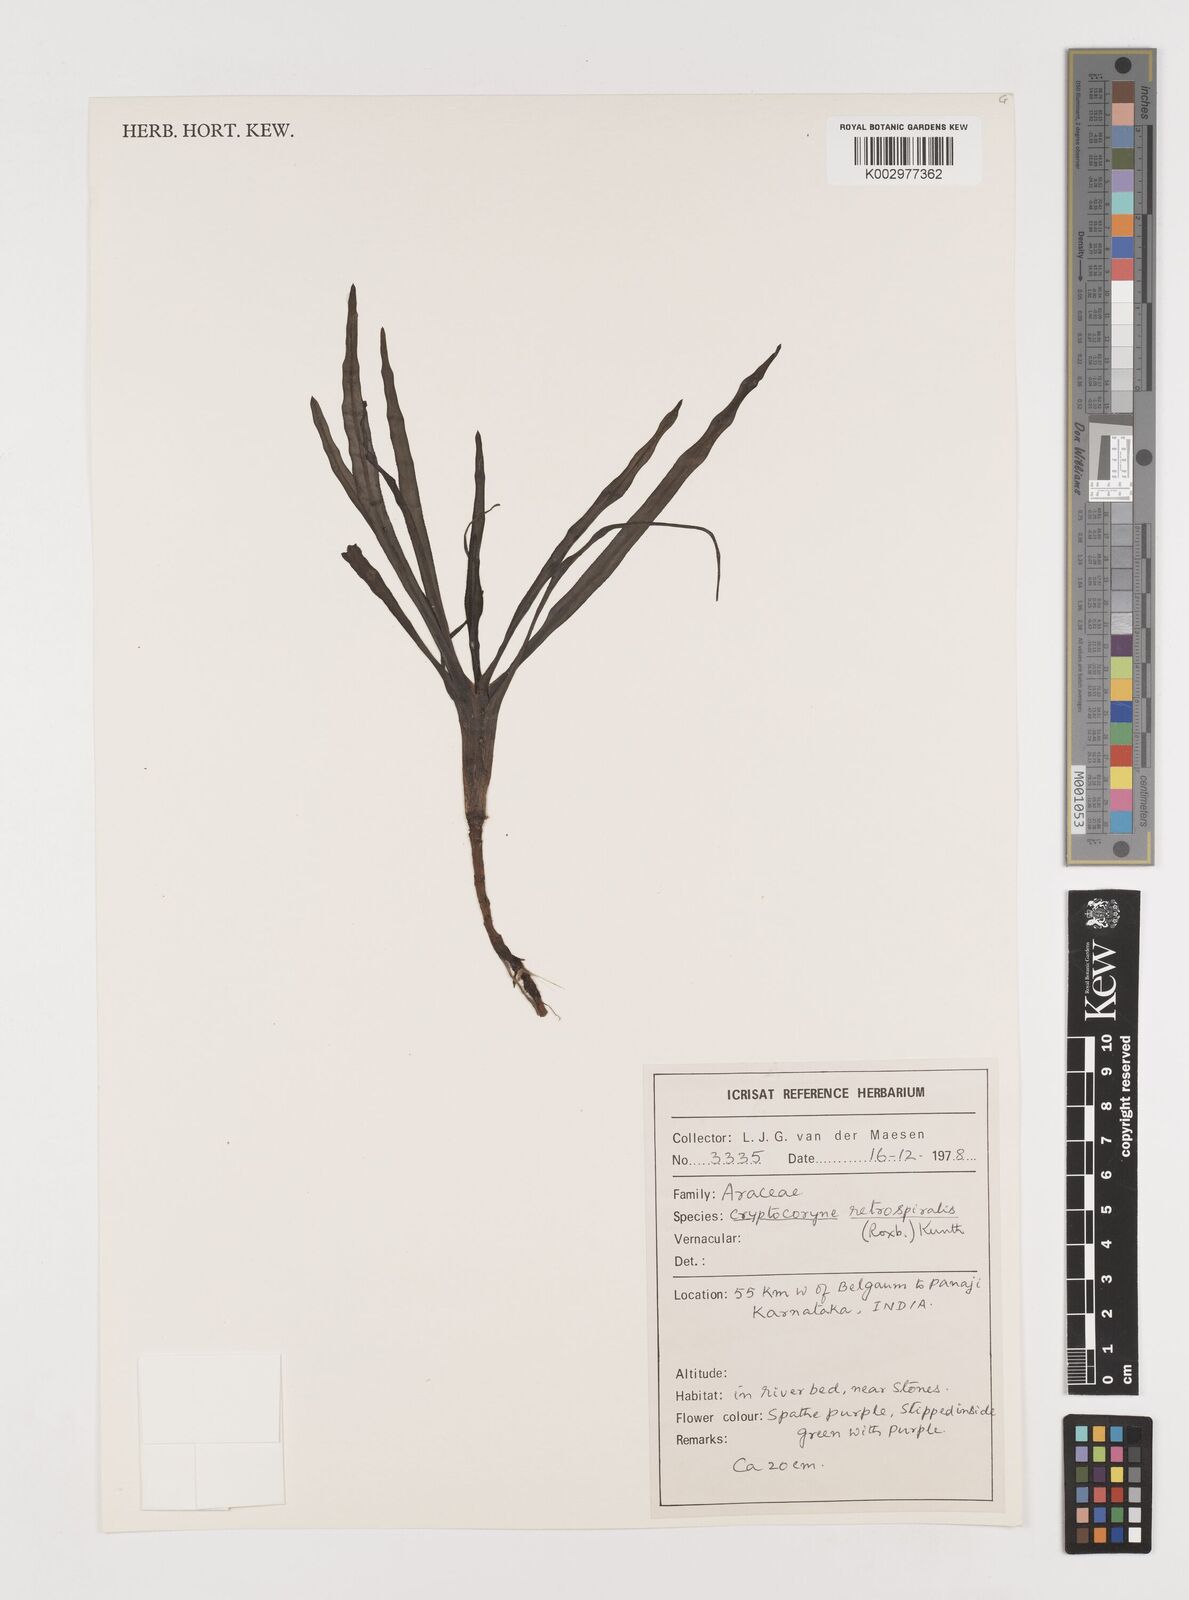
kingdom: Plantae
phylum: Tracheophyta
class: Liliopsida
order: Alismatales
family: Araceae
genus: Cryptocoryne
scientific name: Cryptocoryne retrospiralis
